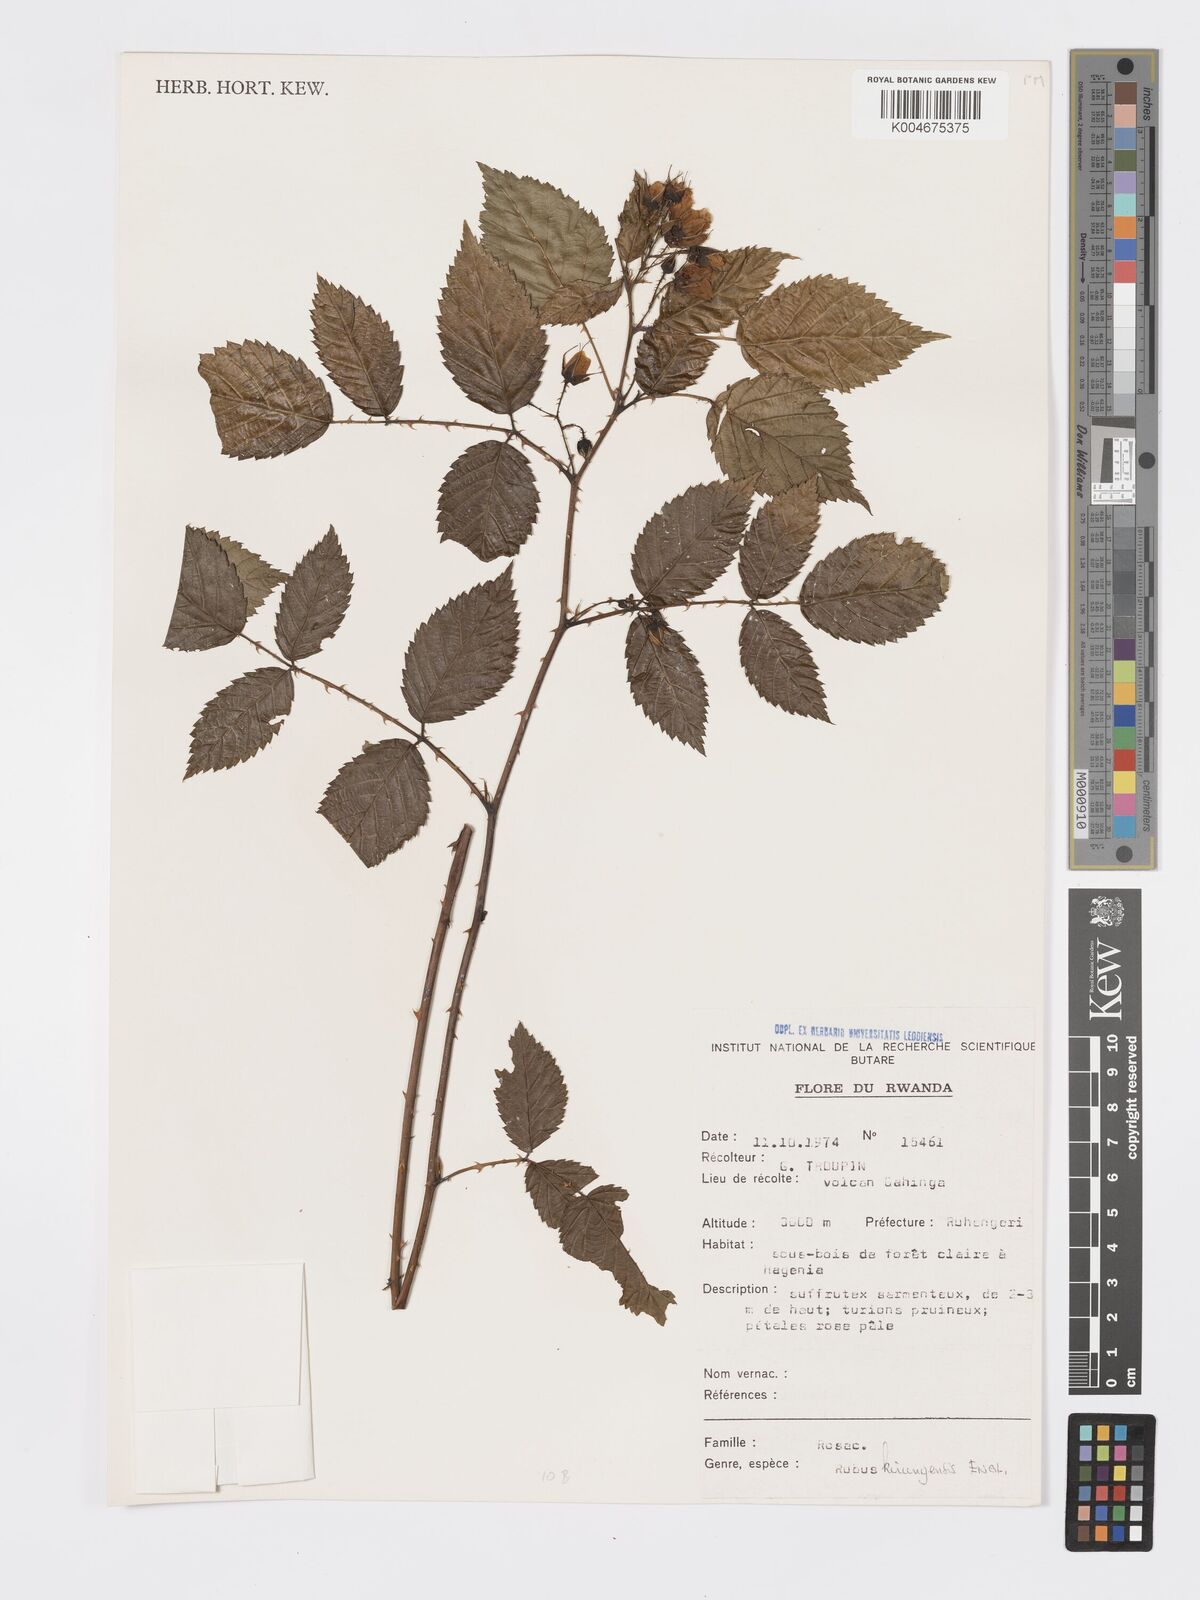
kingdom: Plantae
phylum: Tracheophyta
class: Magnoliopsida
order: Rosales
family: Rosaceae
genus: Rubus
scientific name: Rubus kirungensis
